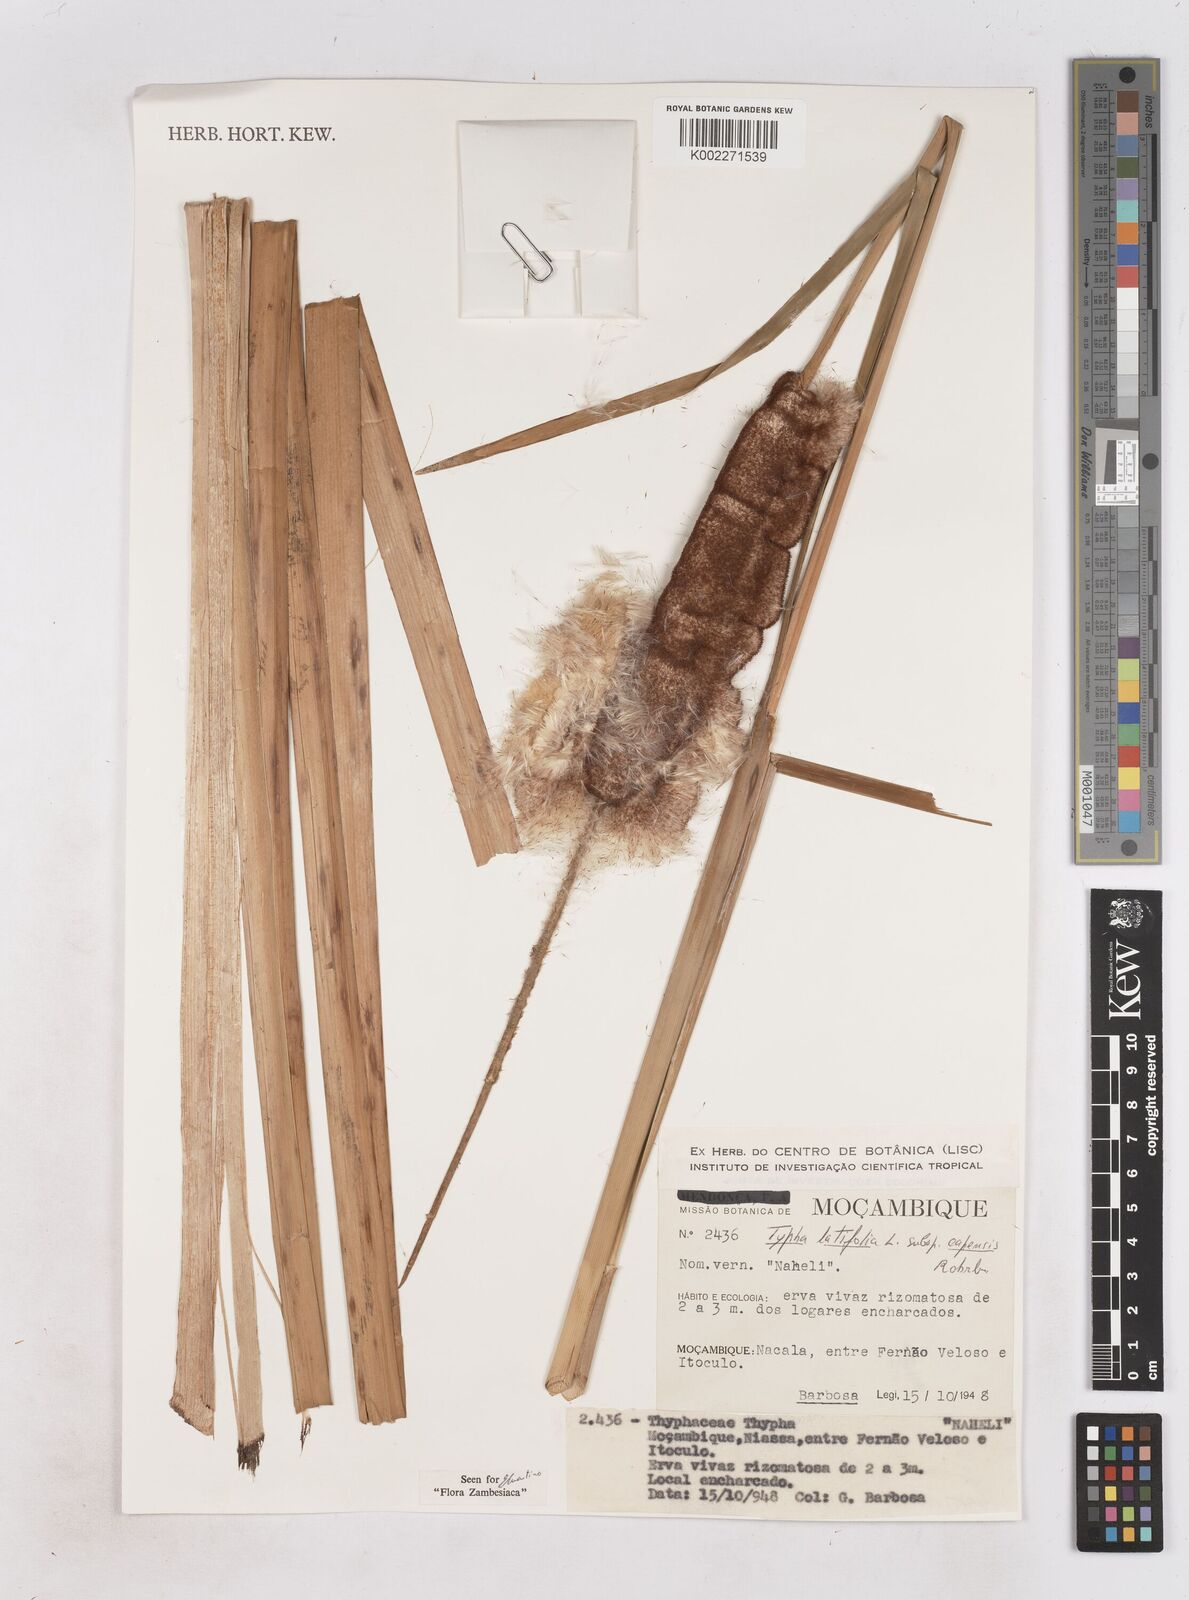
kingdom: Plantae
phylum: Tracheophyta
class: Liliopsida
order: Poales
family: Typhaceae
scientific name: Typhaceae
